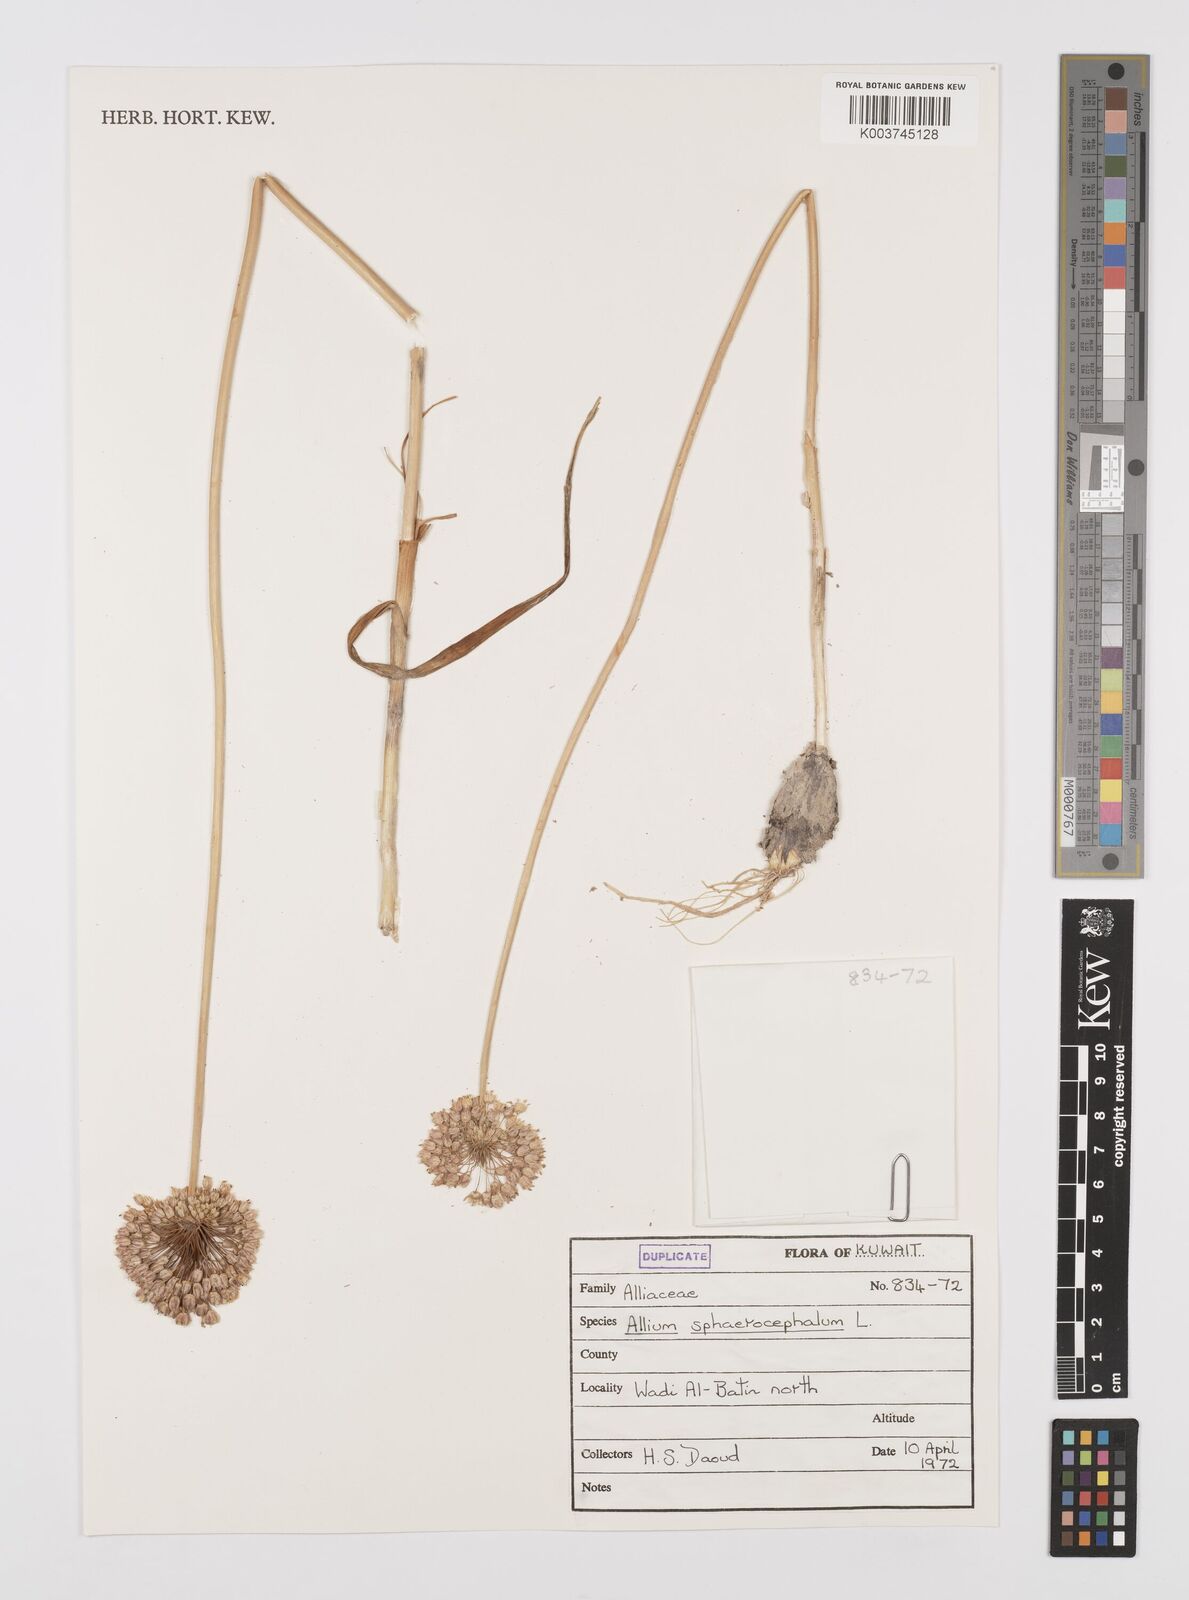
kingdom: Plantae
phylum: Tracheophyta
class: Liliopsida
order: Asparagales
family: Amaryllidaceae
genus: Allium
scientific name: Allium sphaerocephalon
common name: Round-headed leek
